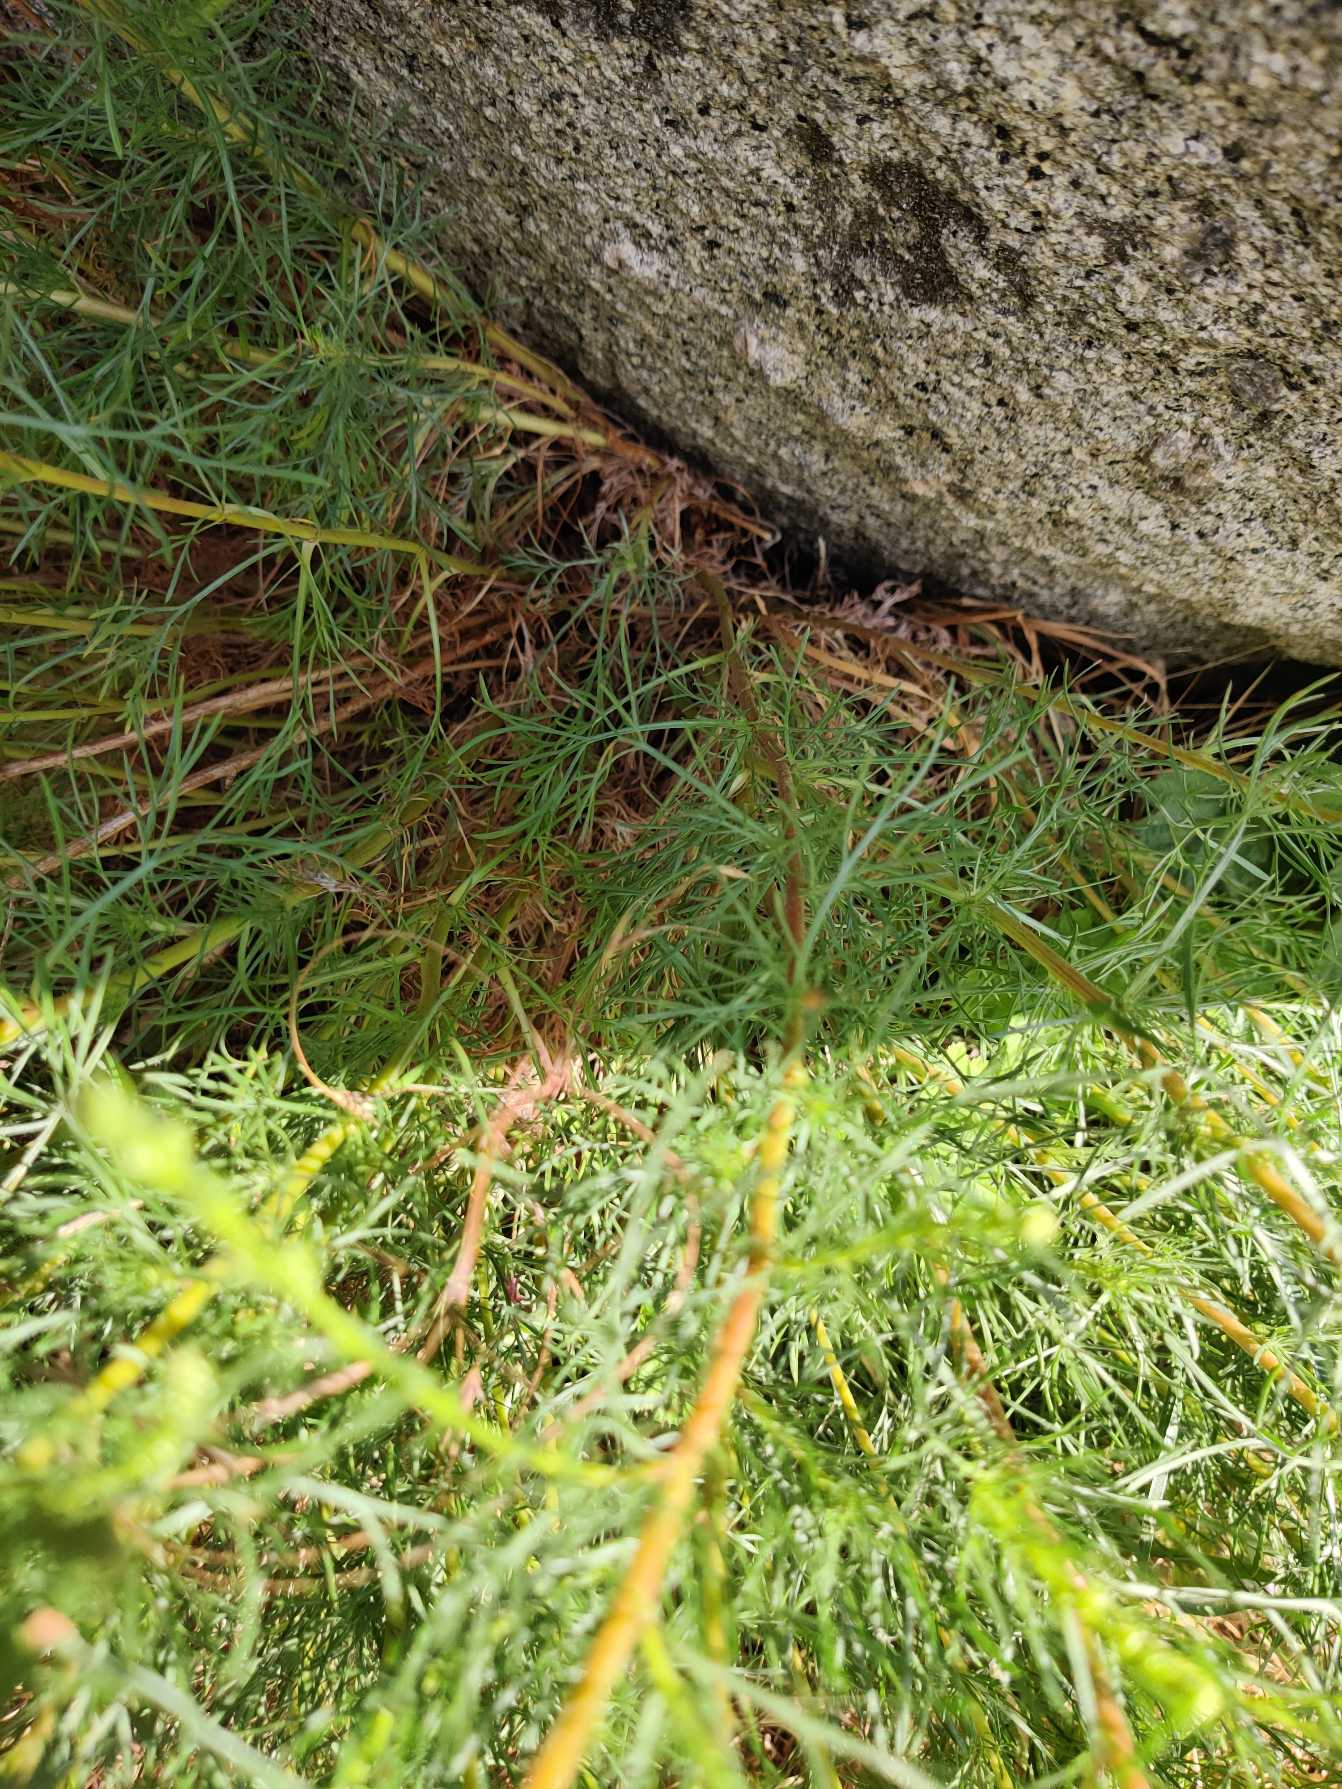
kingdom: Plantae
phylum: Tracheophyta
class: Magnoliopsida
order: Asterales
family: Asteraceae
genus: Artemisia
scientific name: Artemisia campestris
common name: Mark-bynke
